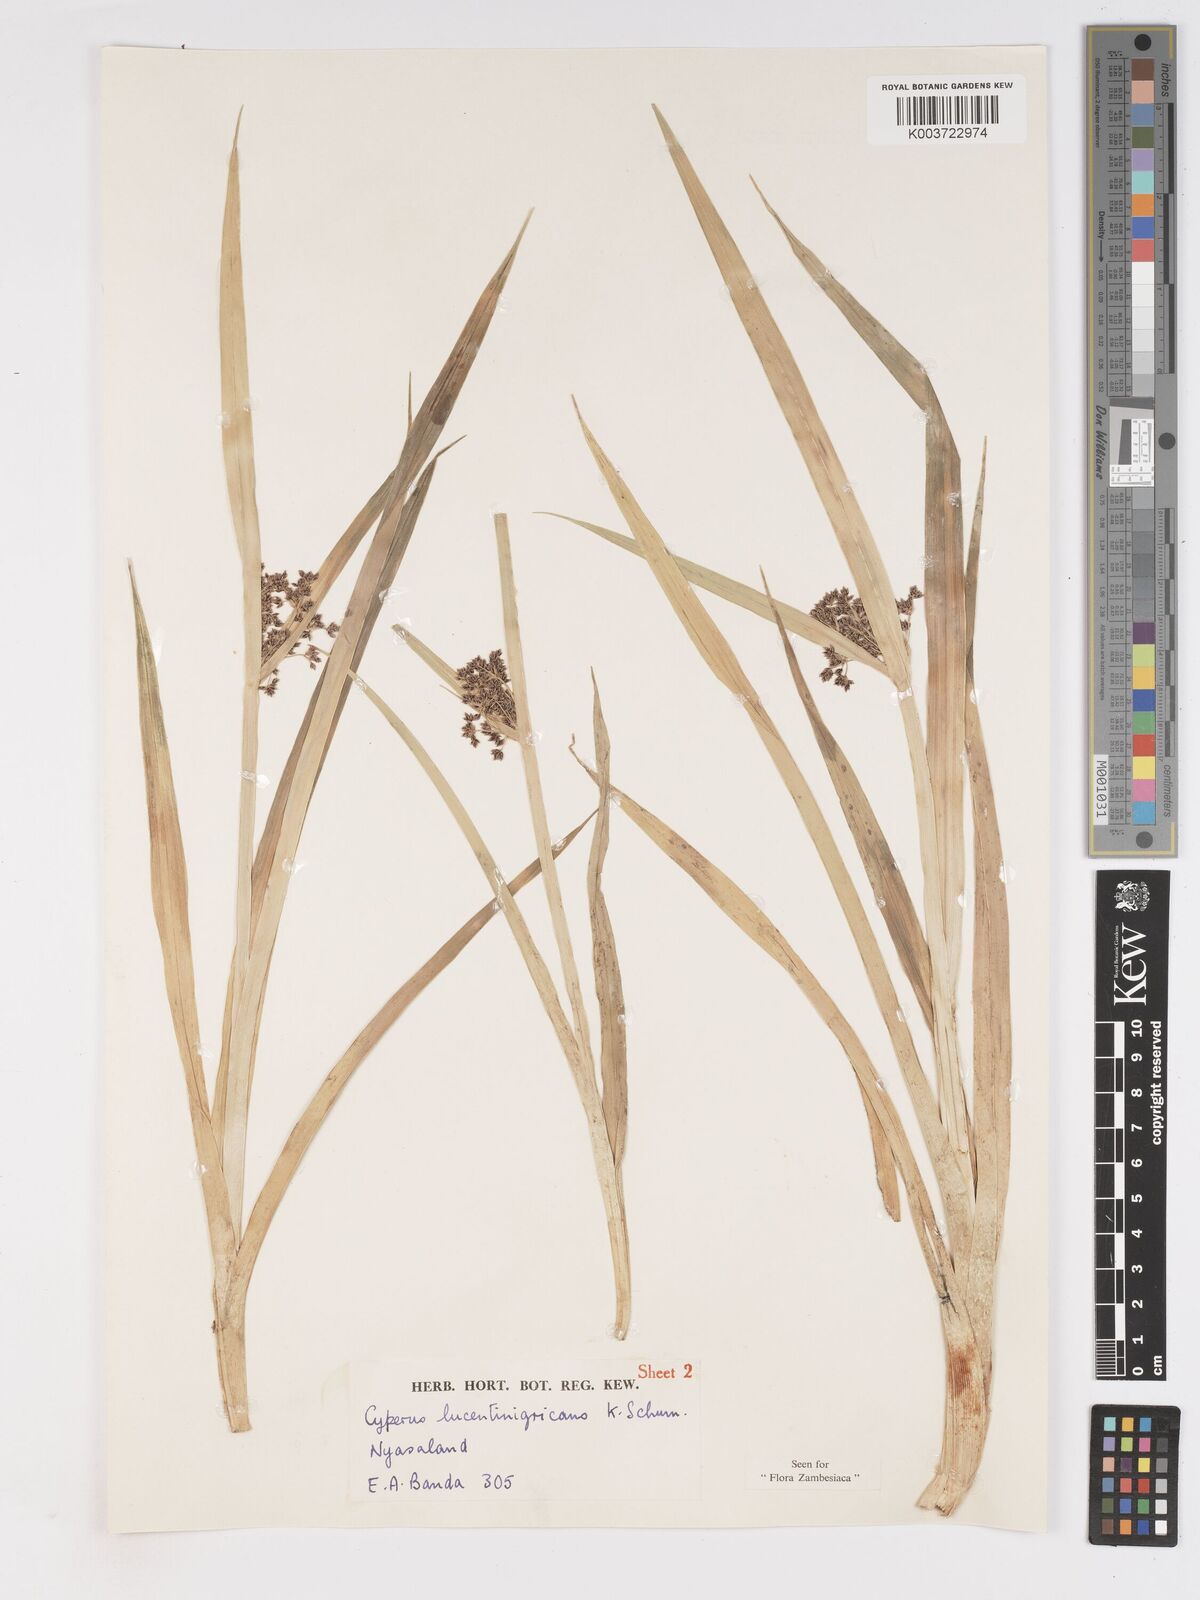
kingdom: Plantae
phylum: Tracheophyta
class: Liliopsida
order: Poales
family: Cyperaceae
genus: Cyperus
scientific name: Cyperus dichrostachyus
